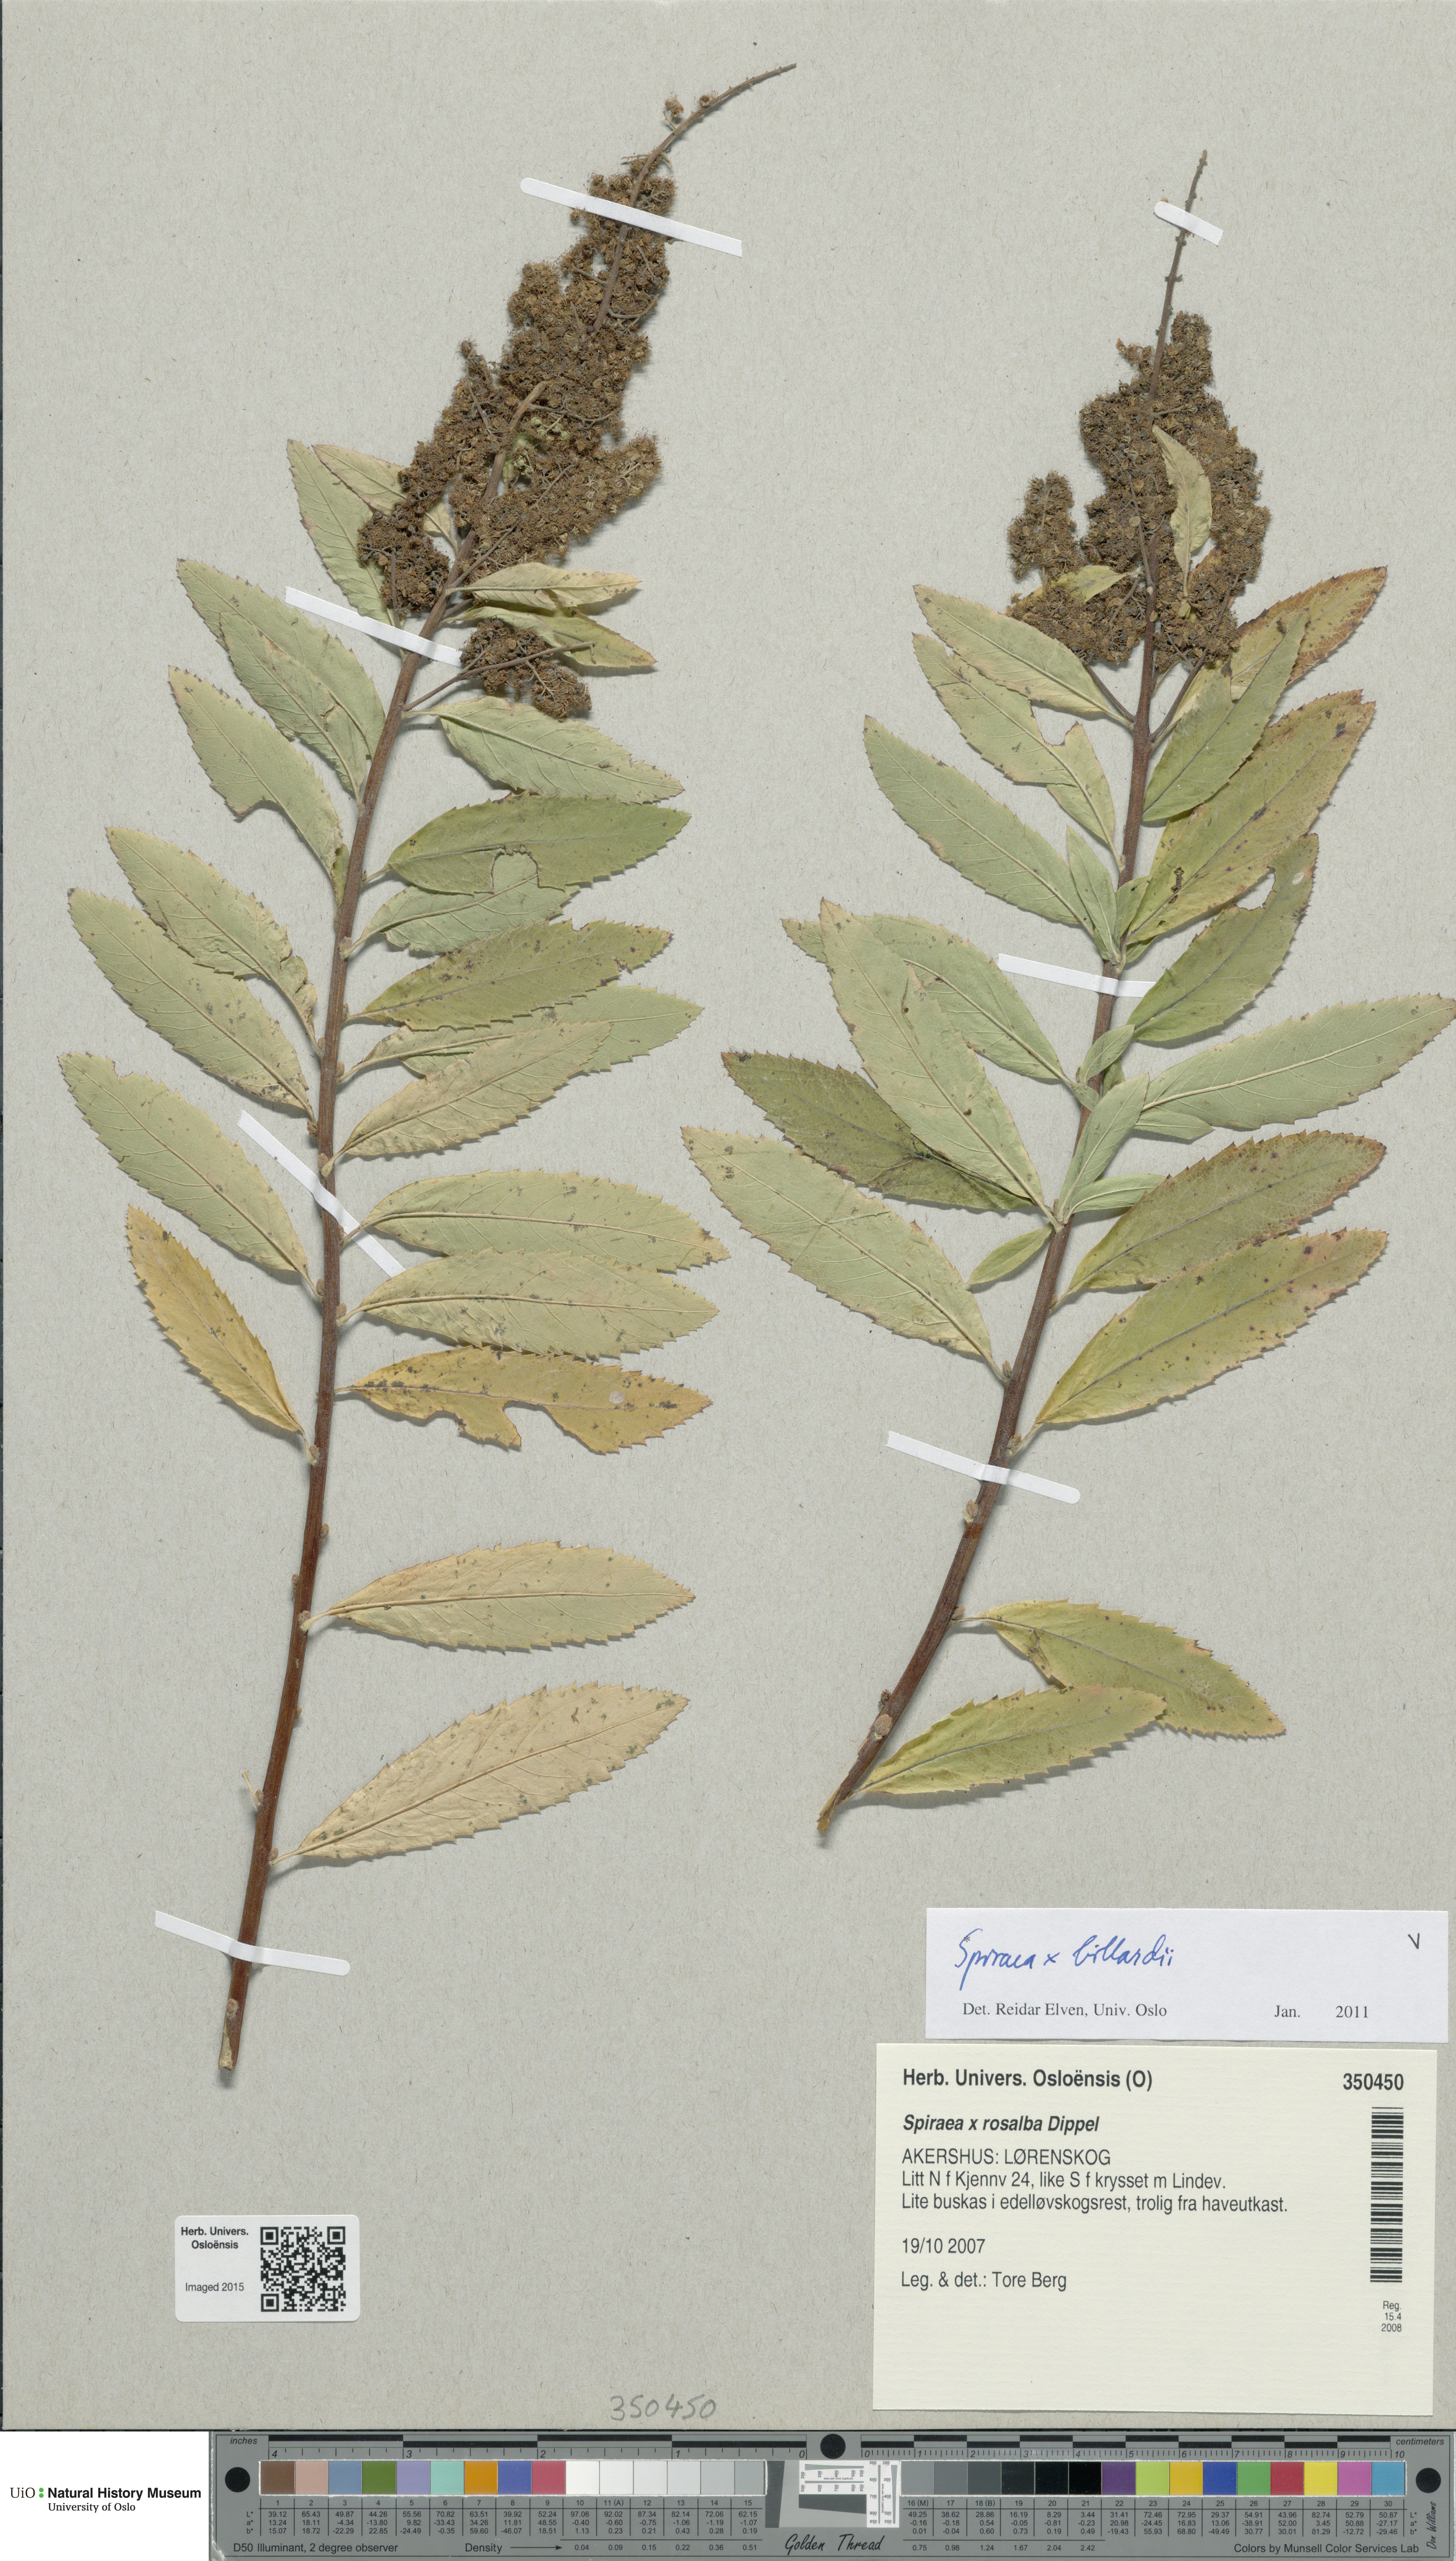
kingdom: Plantae
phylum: Tracheophyta
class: Magnoliopsida
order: Rosales
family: Rosaceae
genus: Spiraea
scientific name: Spiraea billardii
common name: Billard's bridewort
